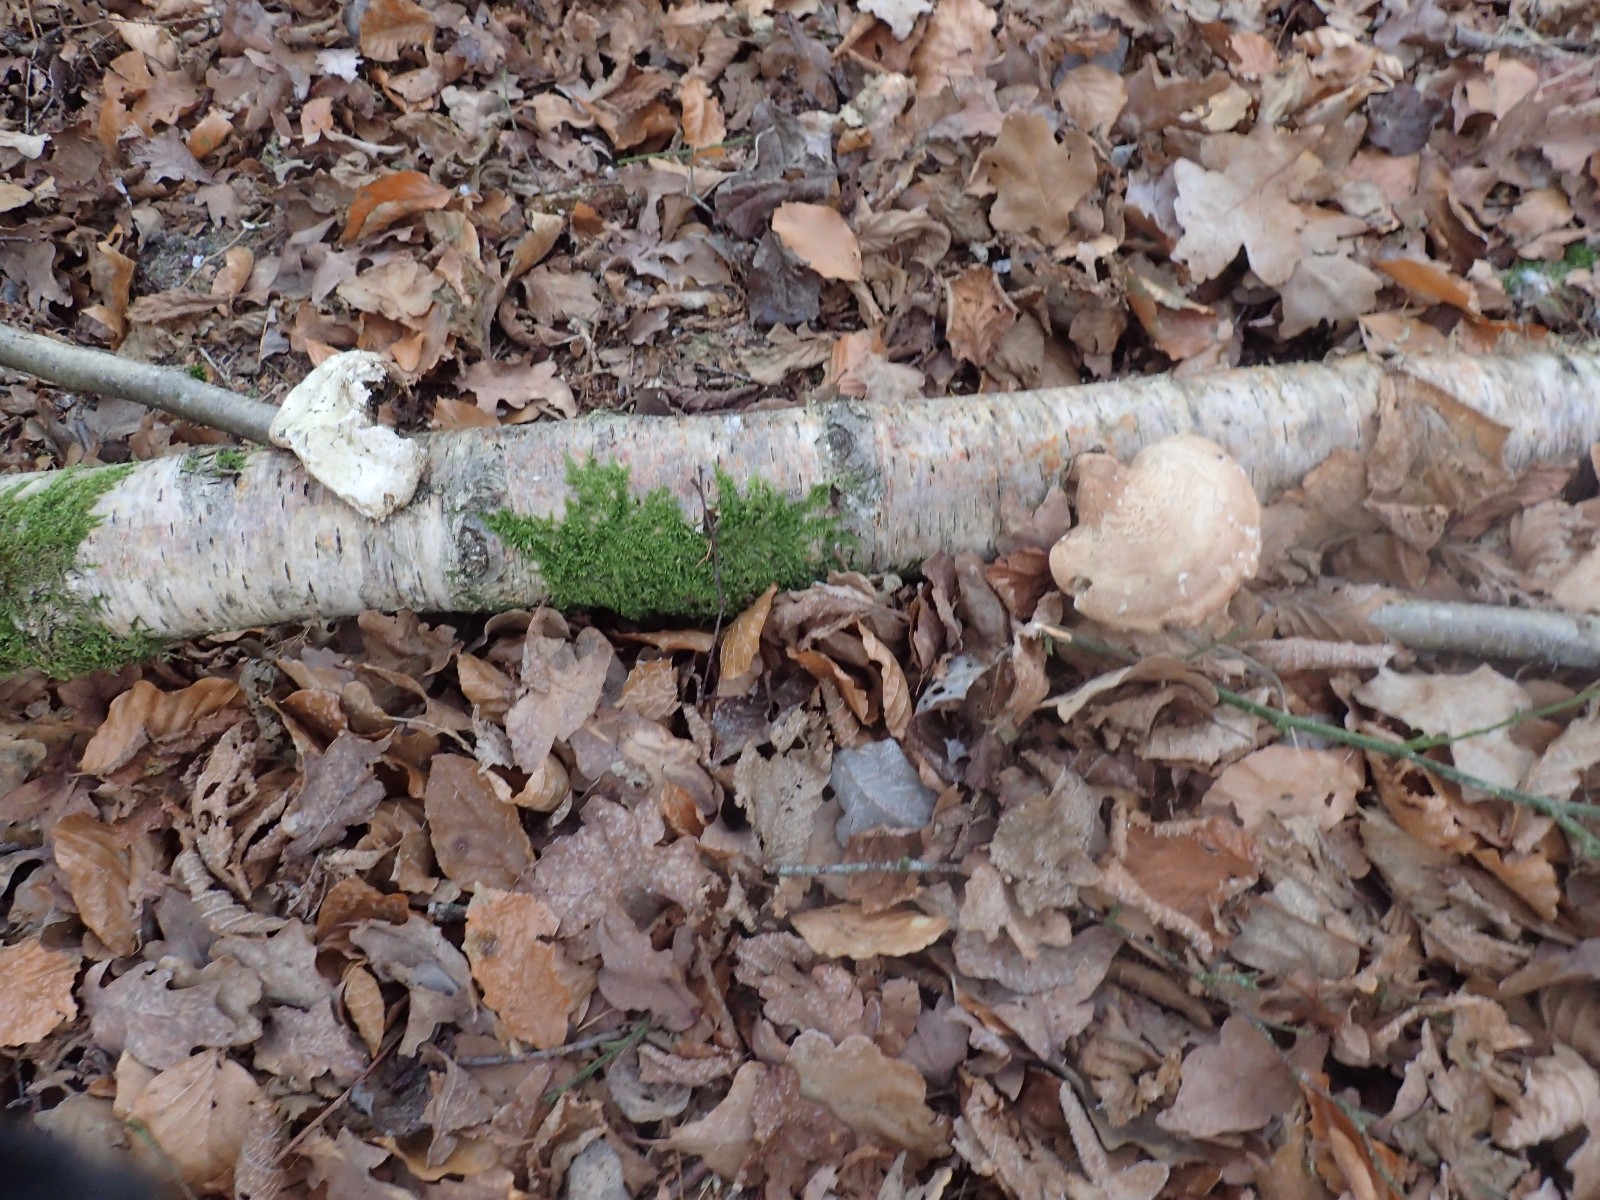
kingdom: Fungi
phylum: Basidiomycota
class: Agaricomycetes
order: Polyporales
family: Fomitopsidaceae
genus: Fomitopsis
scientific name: Fomitopsis betulina
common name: birkeporesvamp
